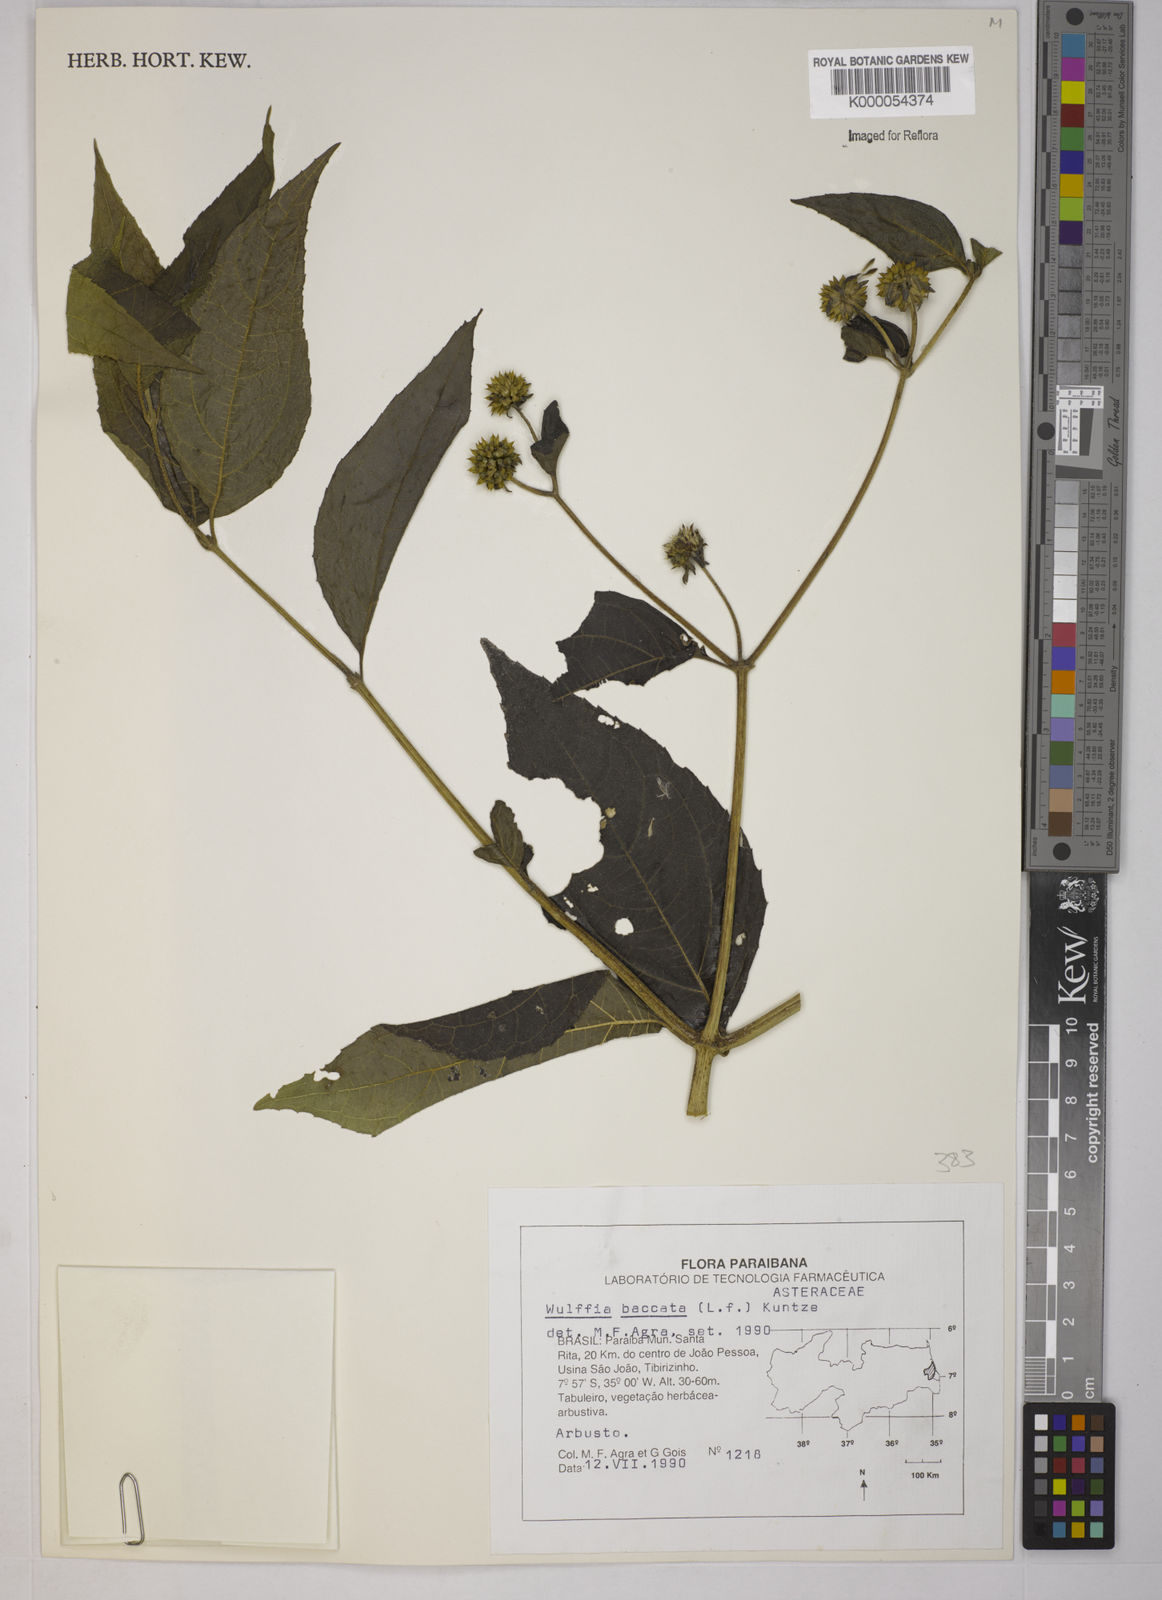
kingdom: Plantae
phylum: Tracheophyta
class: Magnoliopsida
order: Asterales
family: Asteraceae
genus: Tilesia
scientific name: Tilesia baccata
